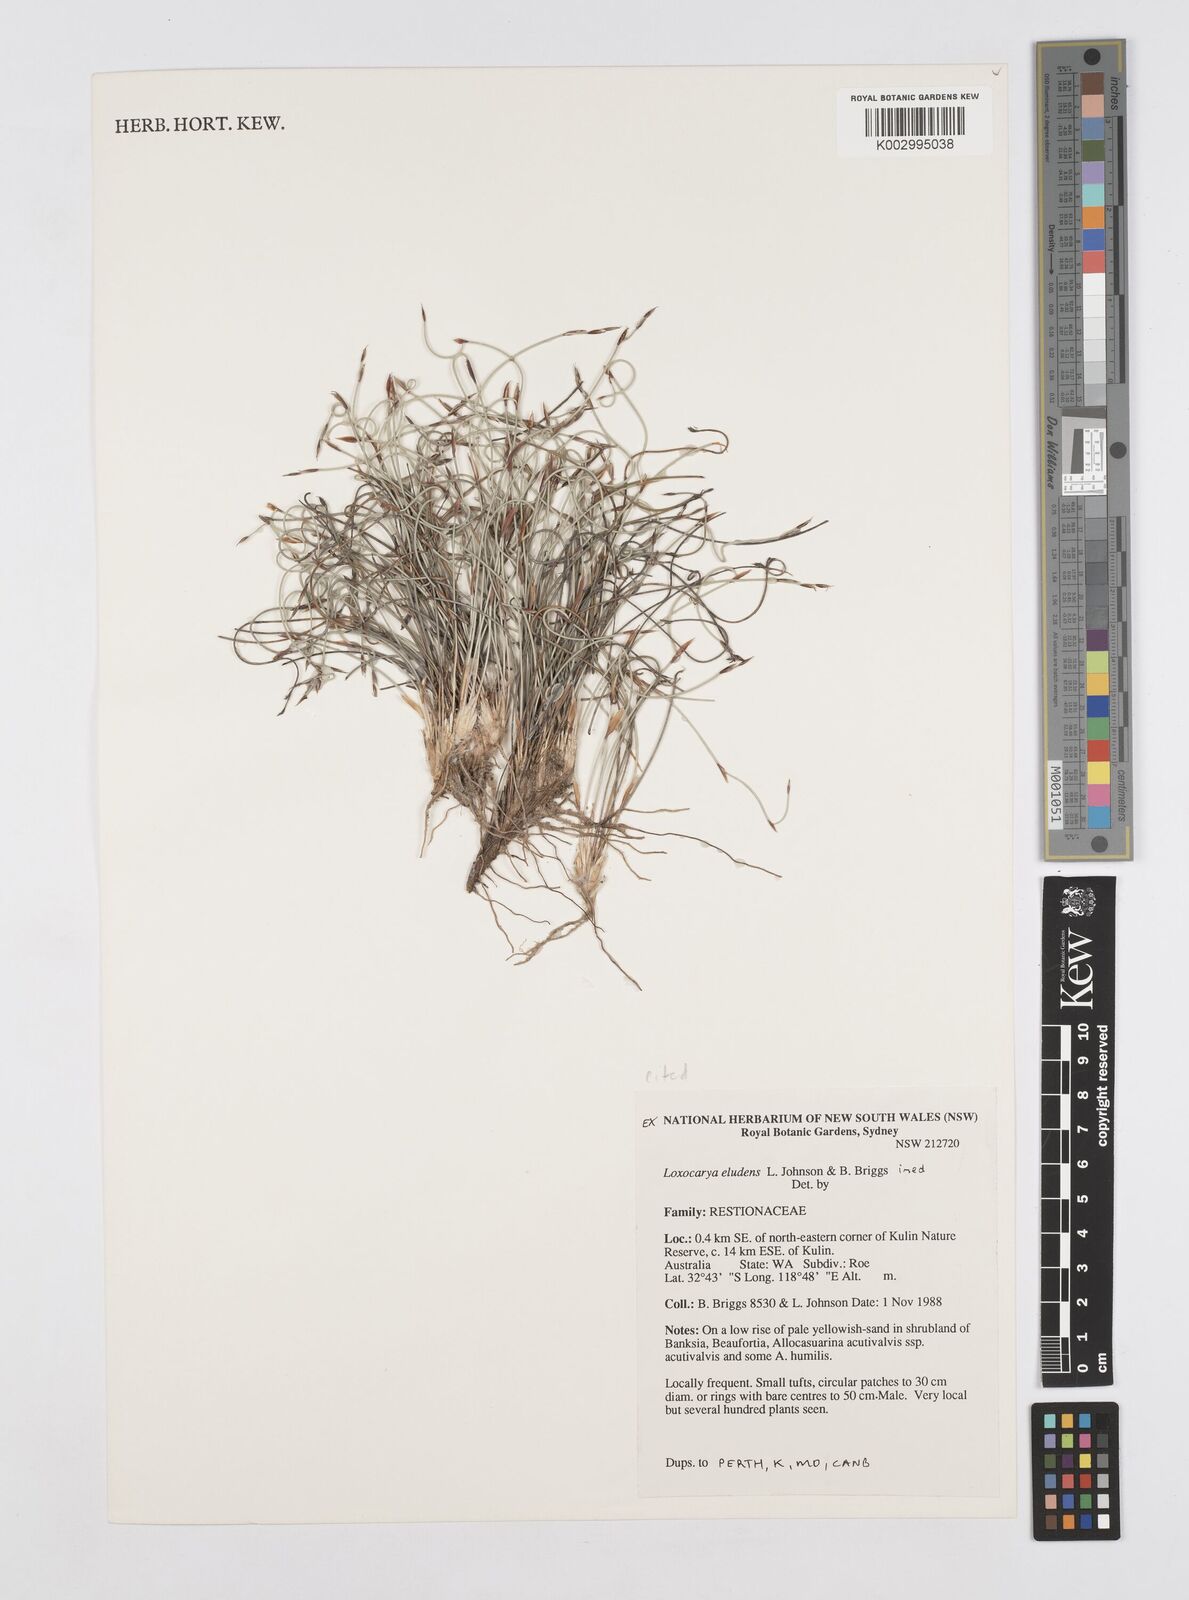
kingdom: Plantae
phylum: Tracheophyta
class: Liliopsida
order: Poales
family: Restionaceae
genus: Desmocladus
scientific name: Desmocladus eludens
